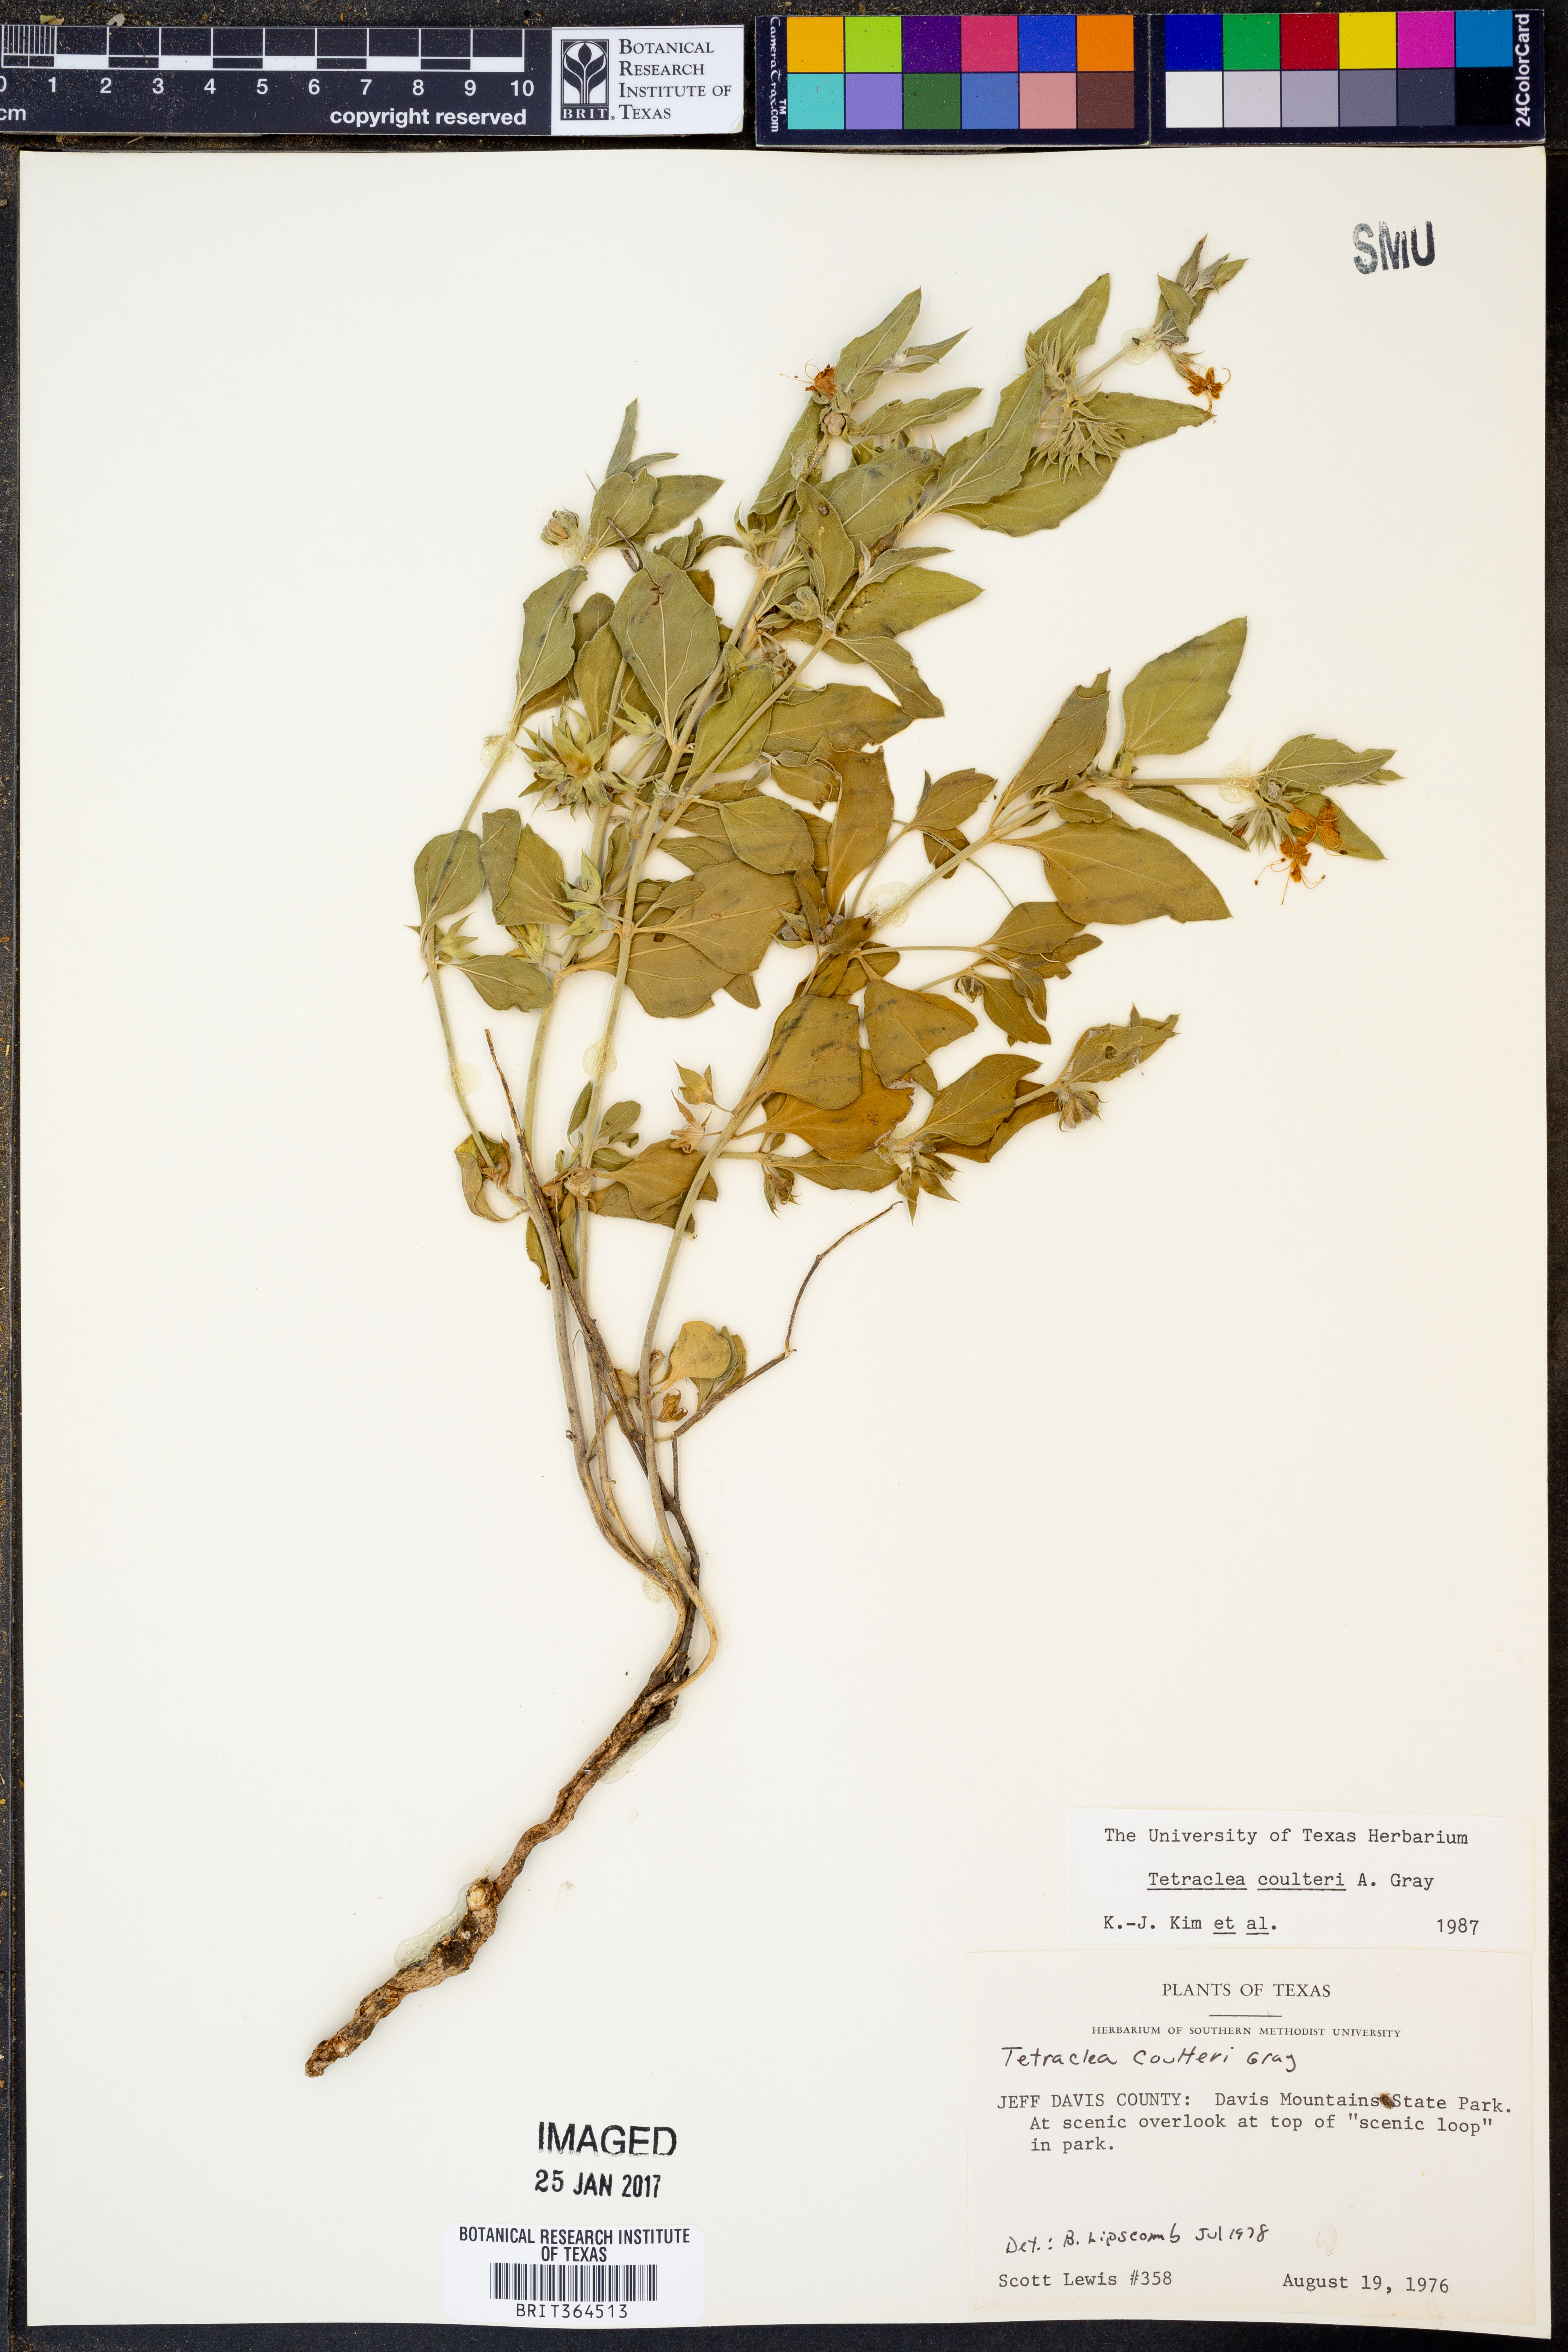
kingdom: Plantae
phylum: Tracheophyta
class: Magnoliopsida
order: Lamiales
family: Lamiaceae
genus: Tetraclea
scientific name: Tetraclea coulteri
